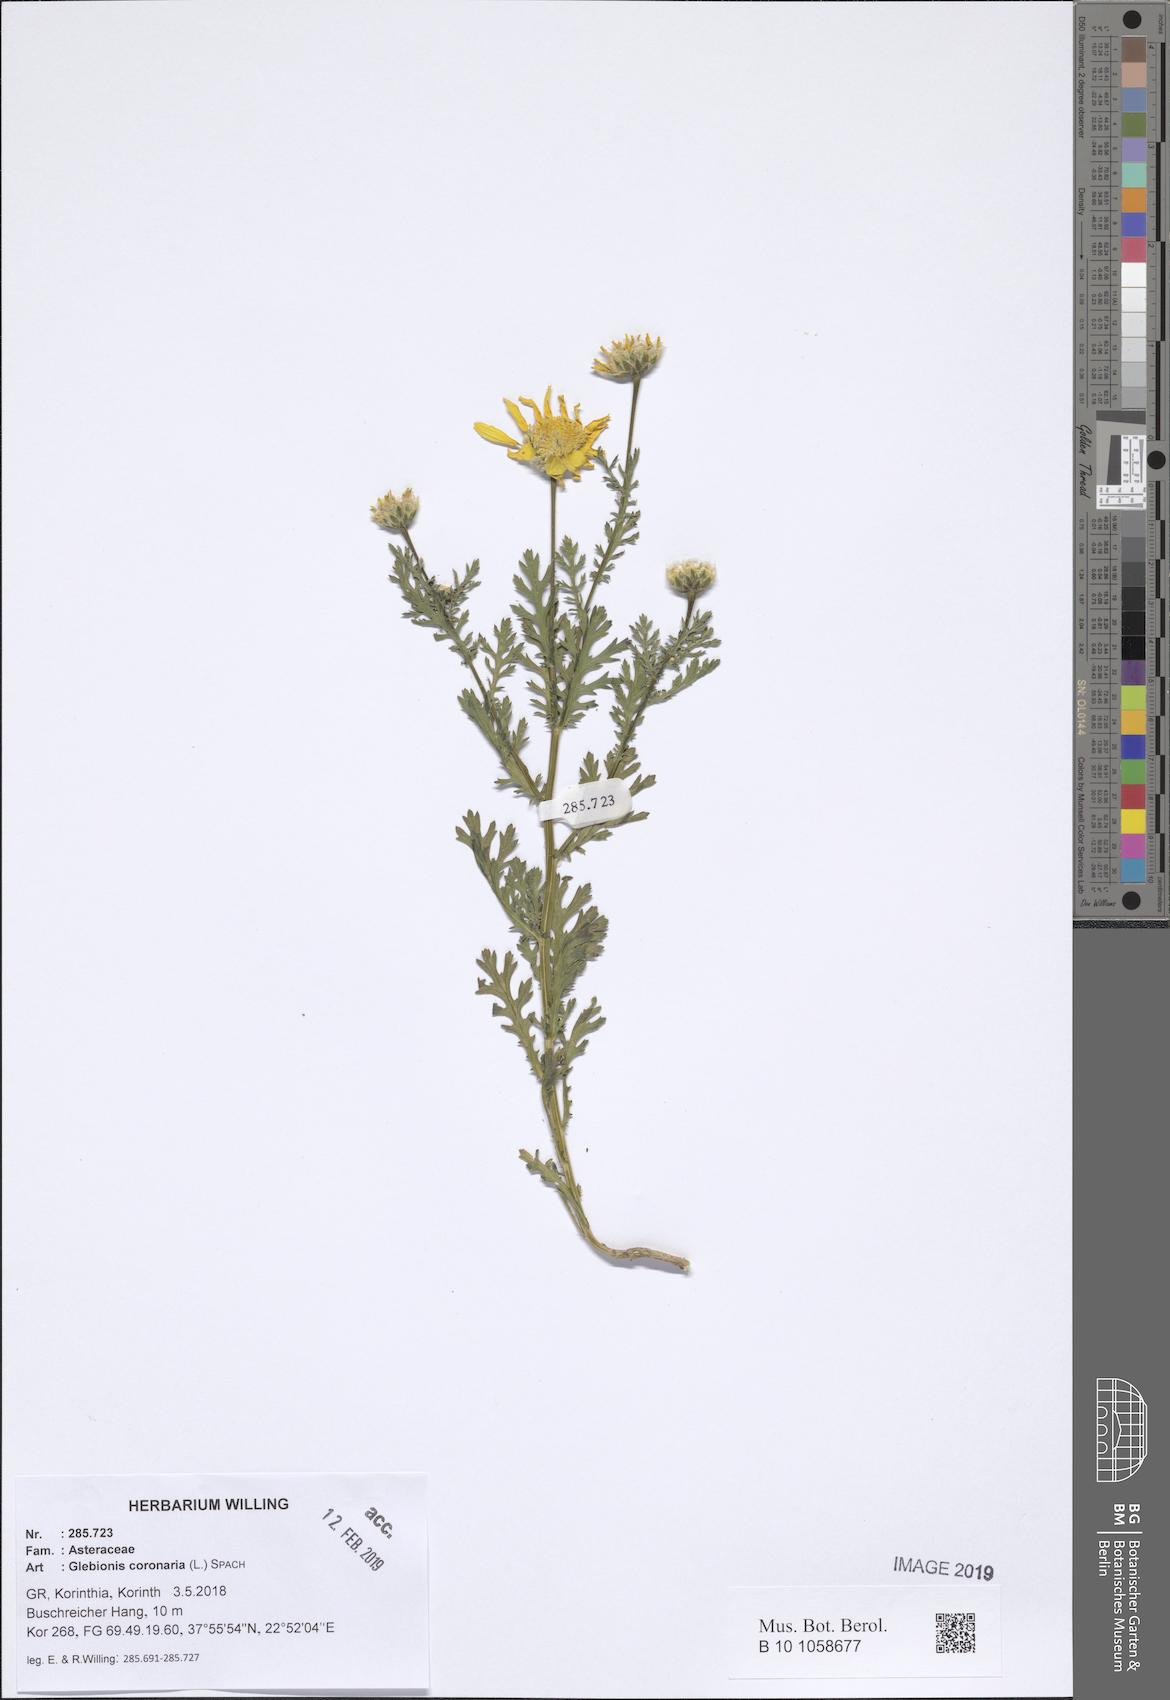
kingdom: Plantae
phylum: Tracheophyta
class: Magnoliopsida
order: Asterales
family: Asteraceae
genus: Glebionis
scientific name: Glebionis coronaria
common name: Crowndaisy
